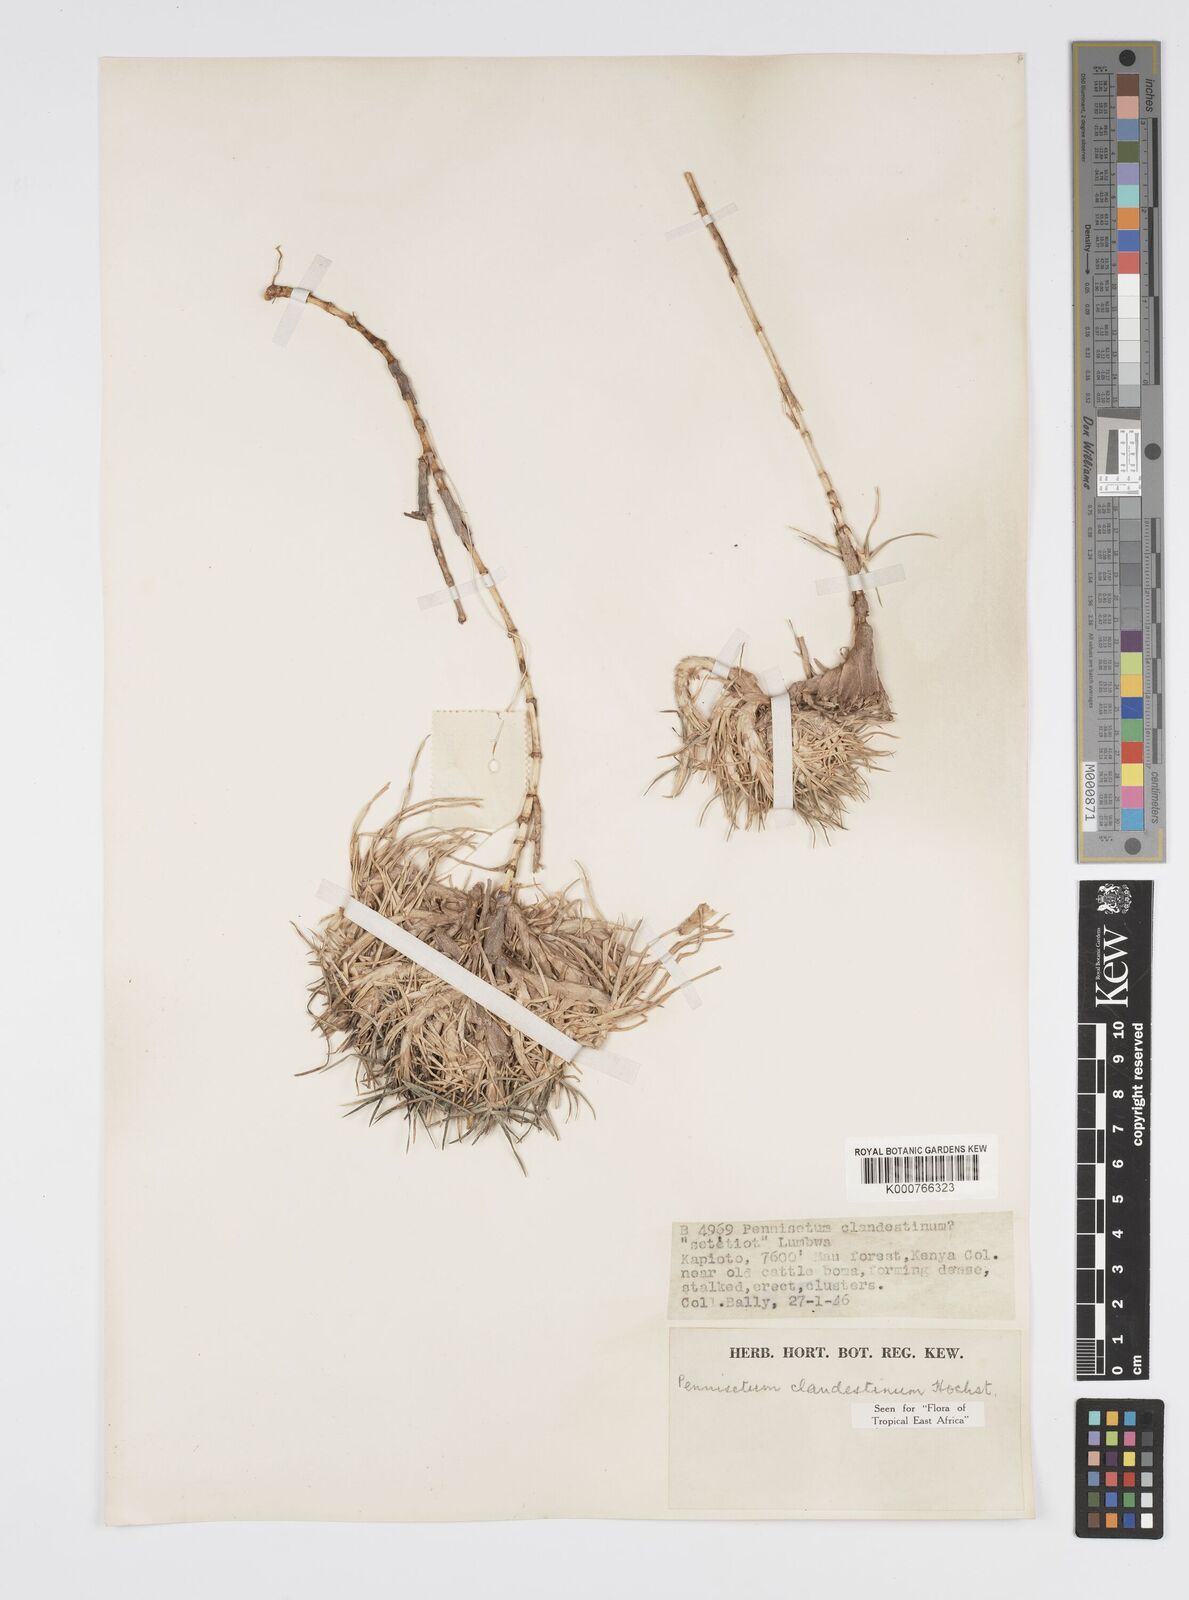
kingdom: Plantae
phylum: Tracheophyta
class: Liliopsida
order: Poales
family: Poaceae
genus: Cenchrus
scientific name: Cenchrus clandestinus
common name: Kikuyugrass
